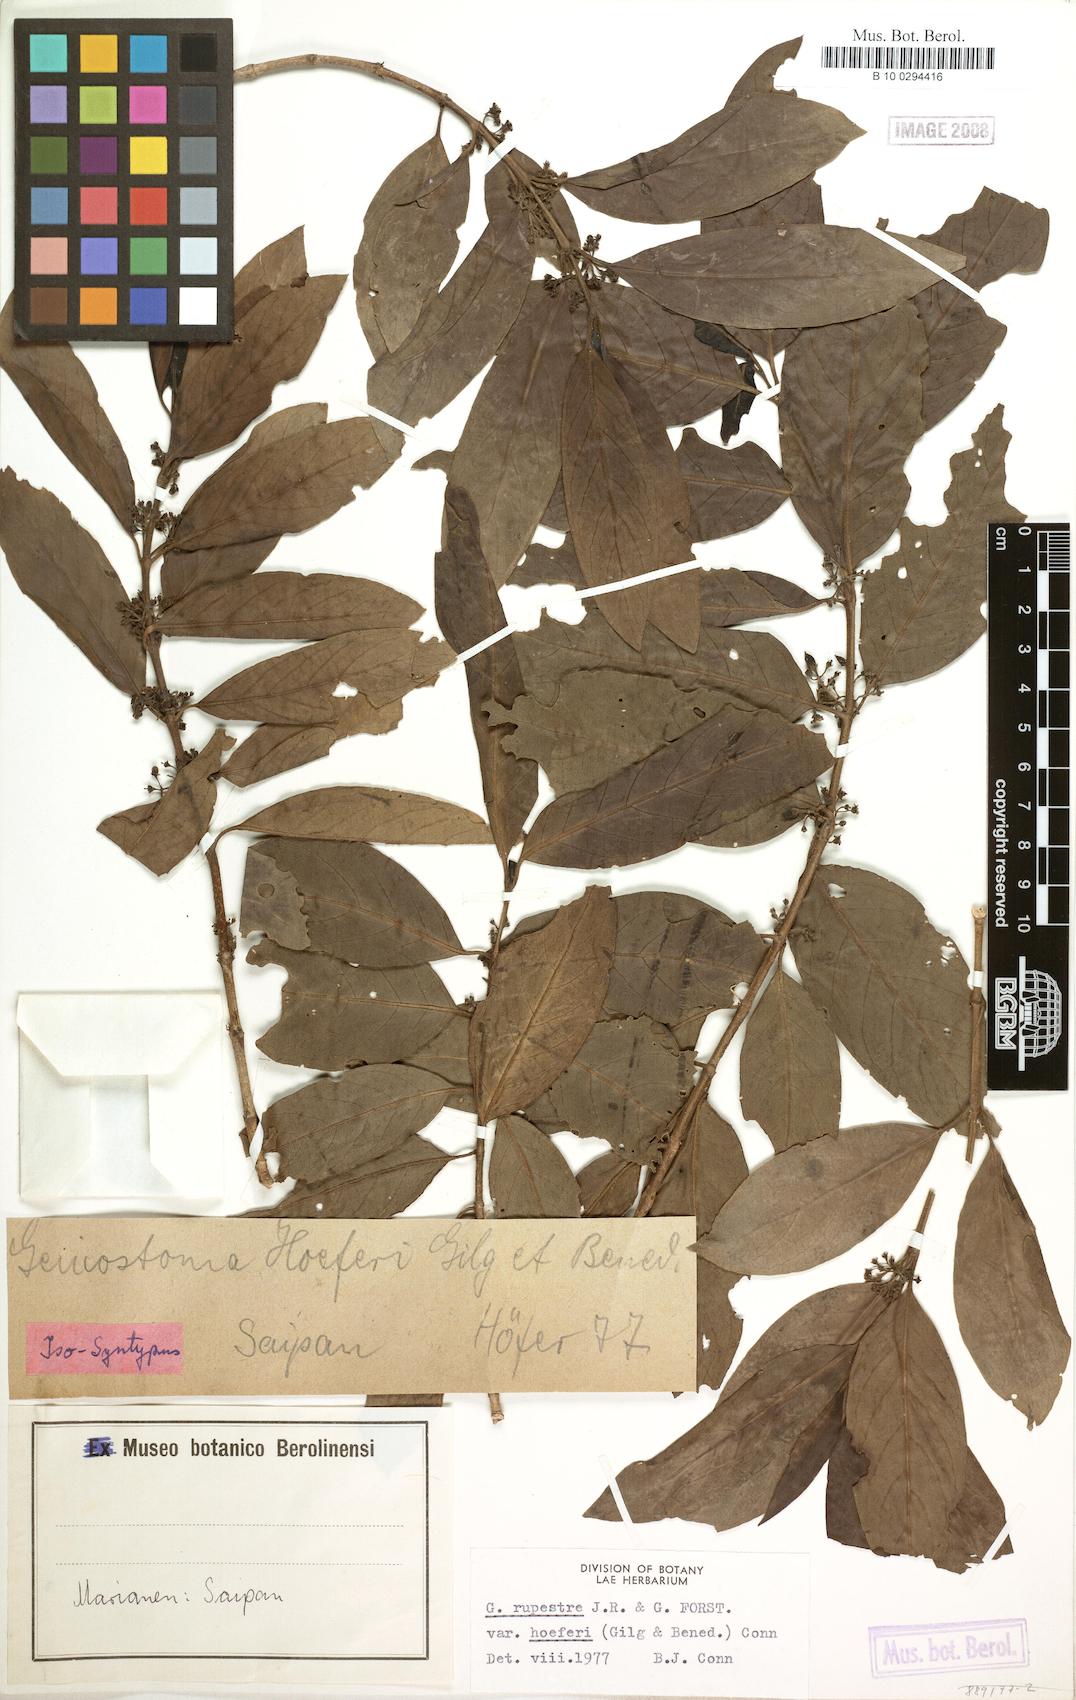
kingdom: Plantae
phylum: Tracheophyta
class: Magnoliopsida
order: Gentianales
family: Loganiaceae
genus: Geniostoma
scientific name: Geniostoma rupestre
